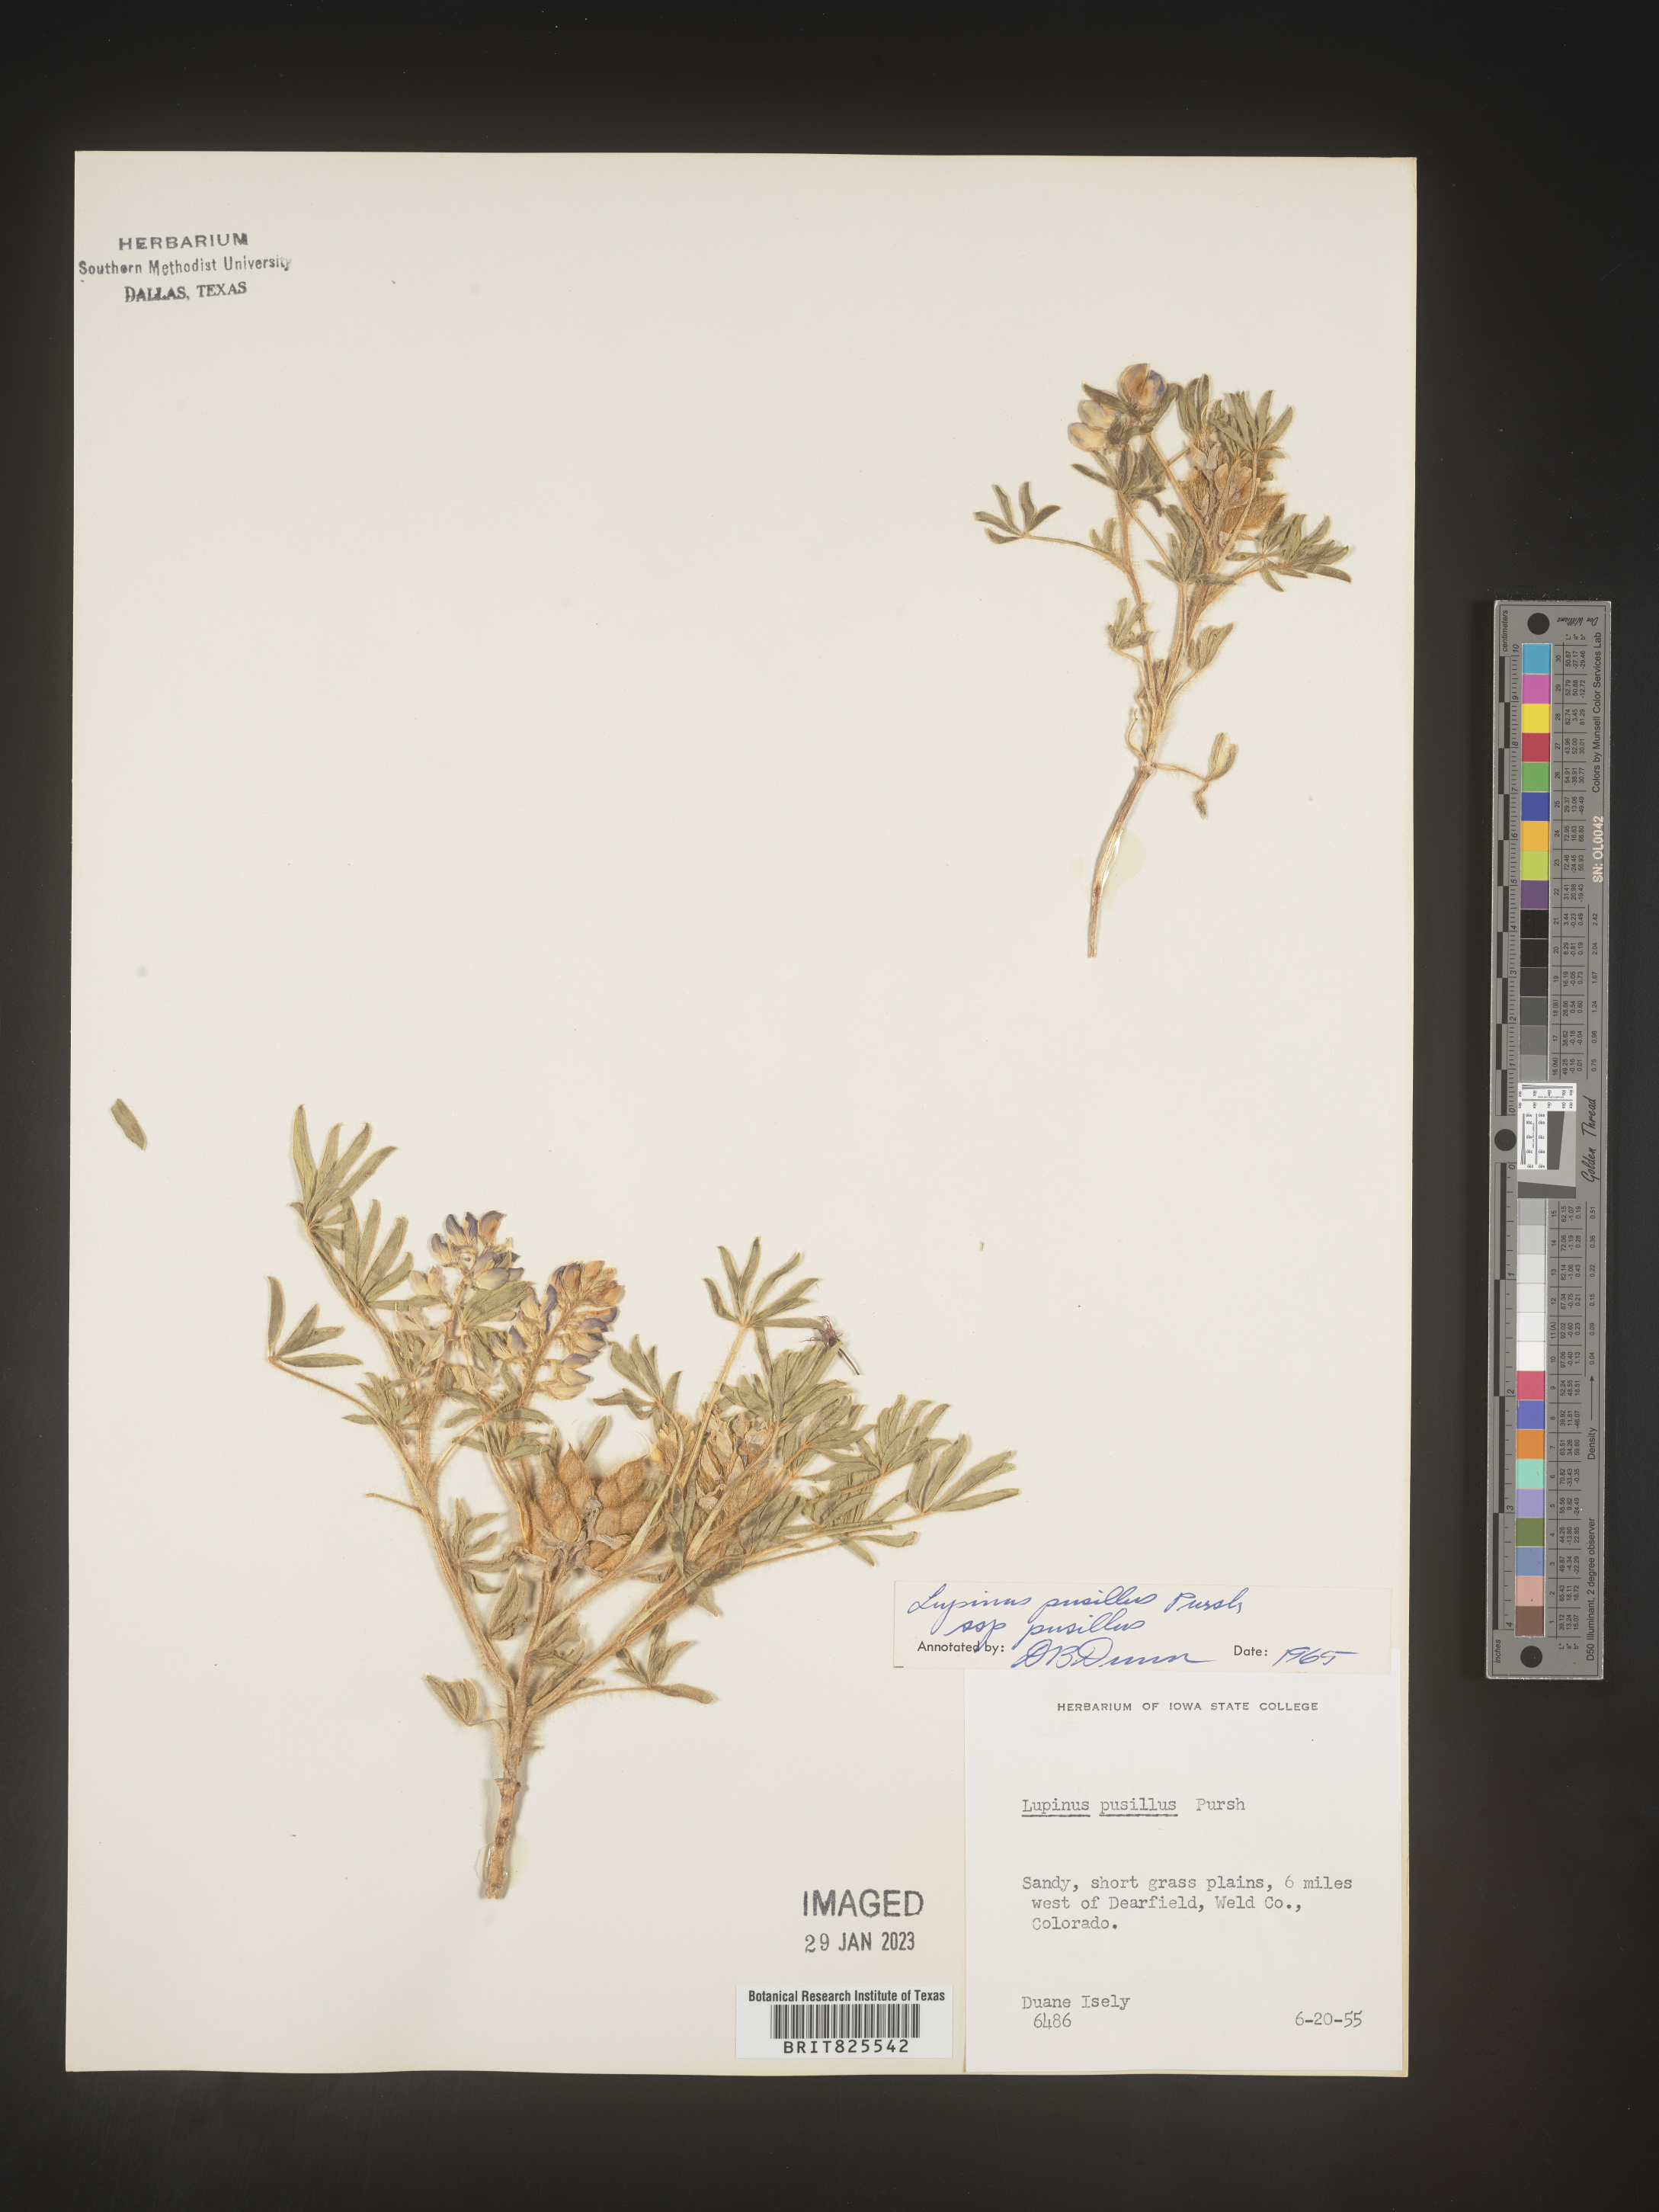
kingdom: Plantae
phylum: Tracheophyta
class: Magnoliopsida
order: Fabales
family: Fabaceae
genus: Lupinus
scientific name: Lupinus
